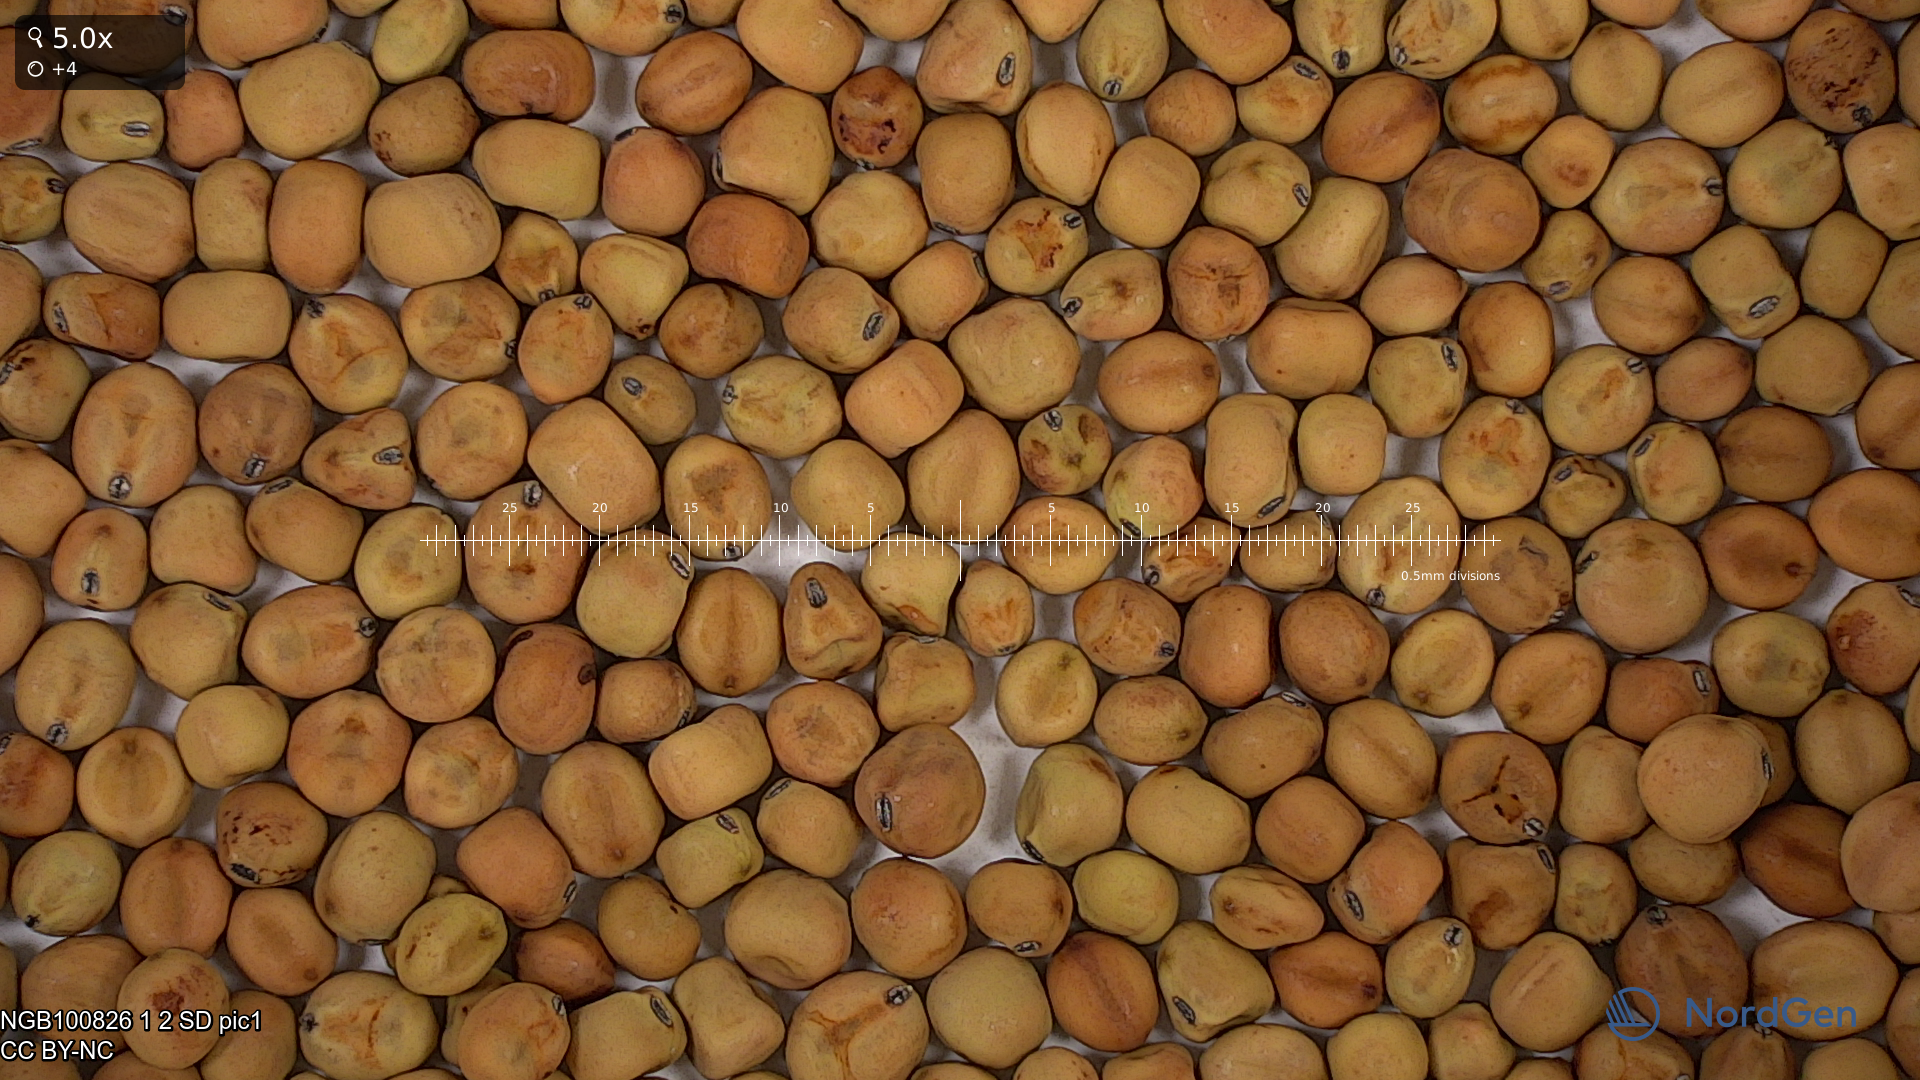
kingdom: Plantae
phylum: Tracheophyta
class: Magnoliopsida
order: Fabales
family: Fabaceae
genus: Lathyrus
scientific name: Lathyrus oleraceus
